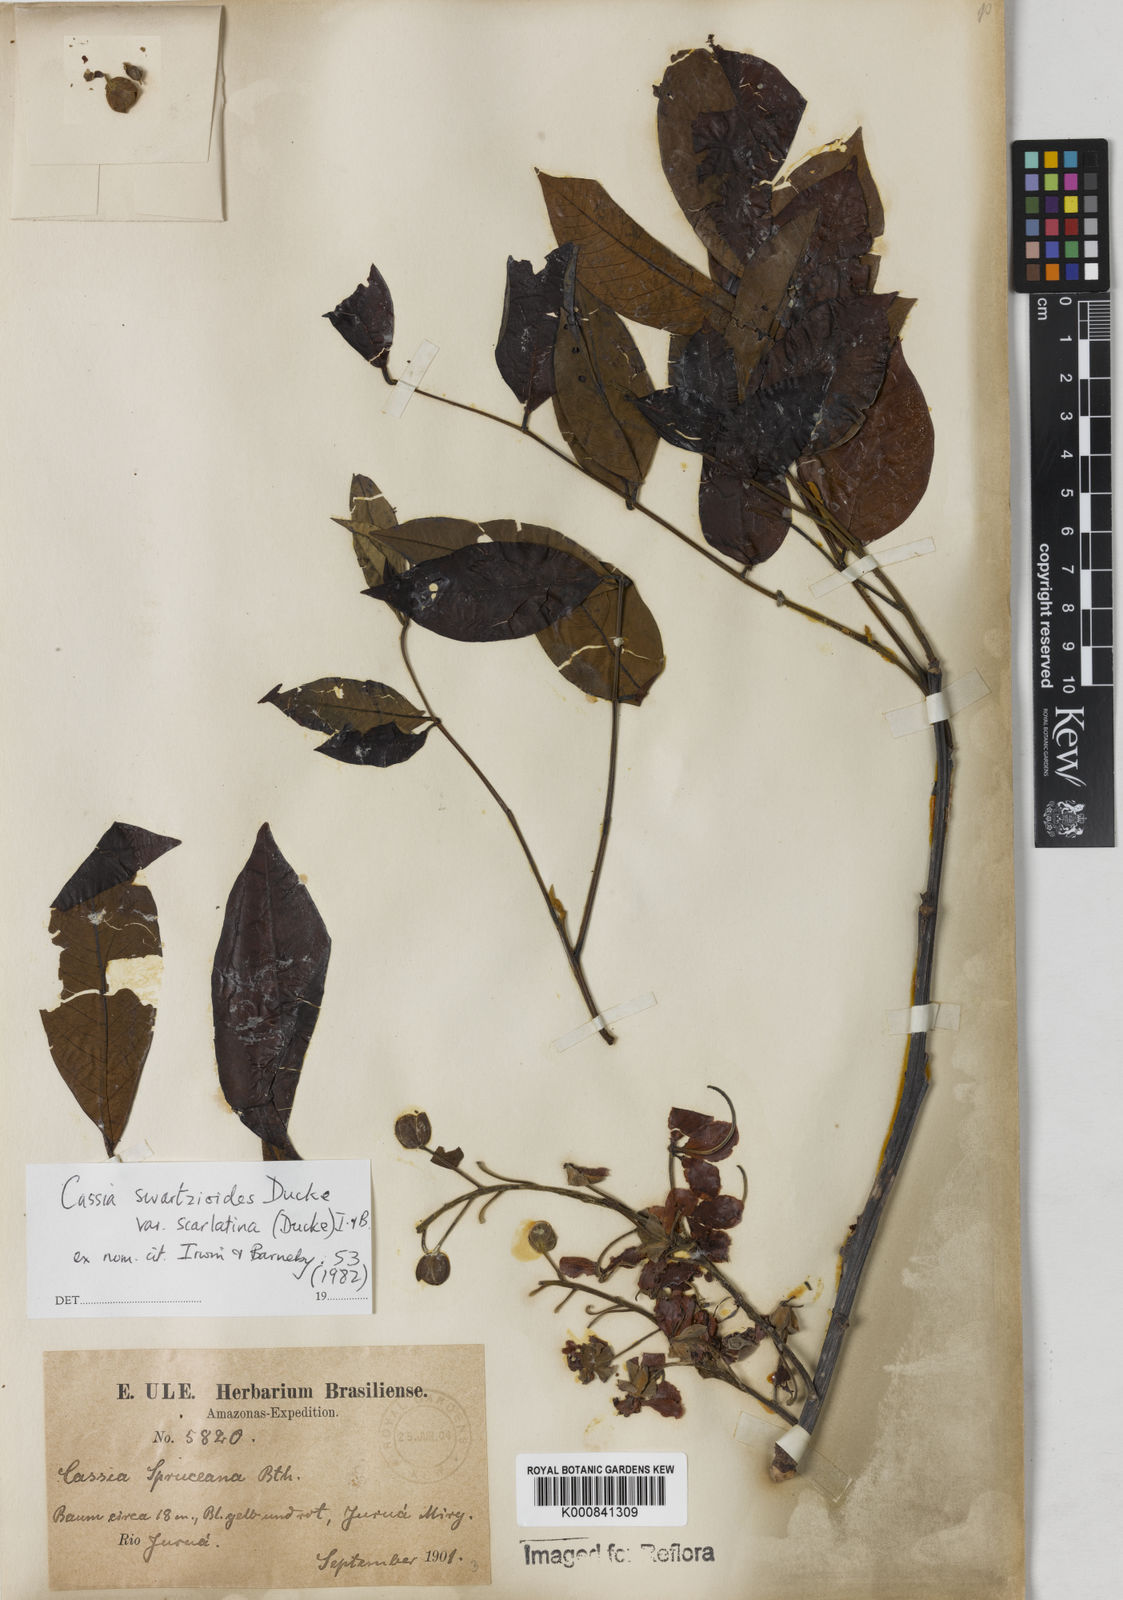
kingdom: Plantae
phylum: Tracheophyta
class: Magnoliopsida
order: Fabales
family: Fabaceae
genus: Cassia
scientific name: Cassia swartzioides
